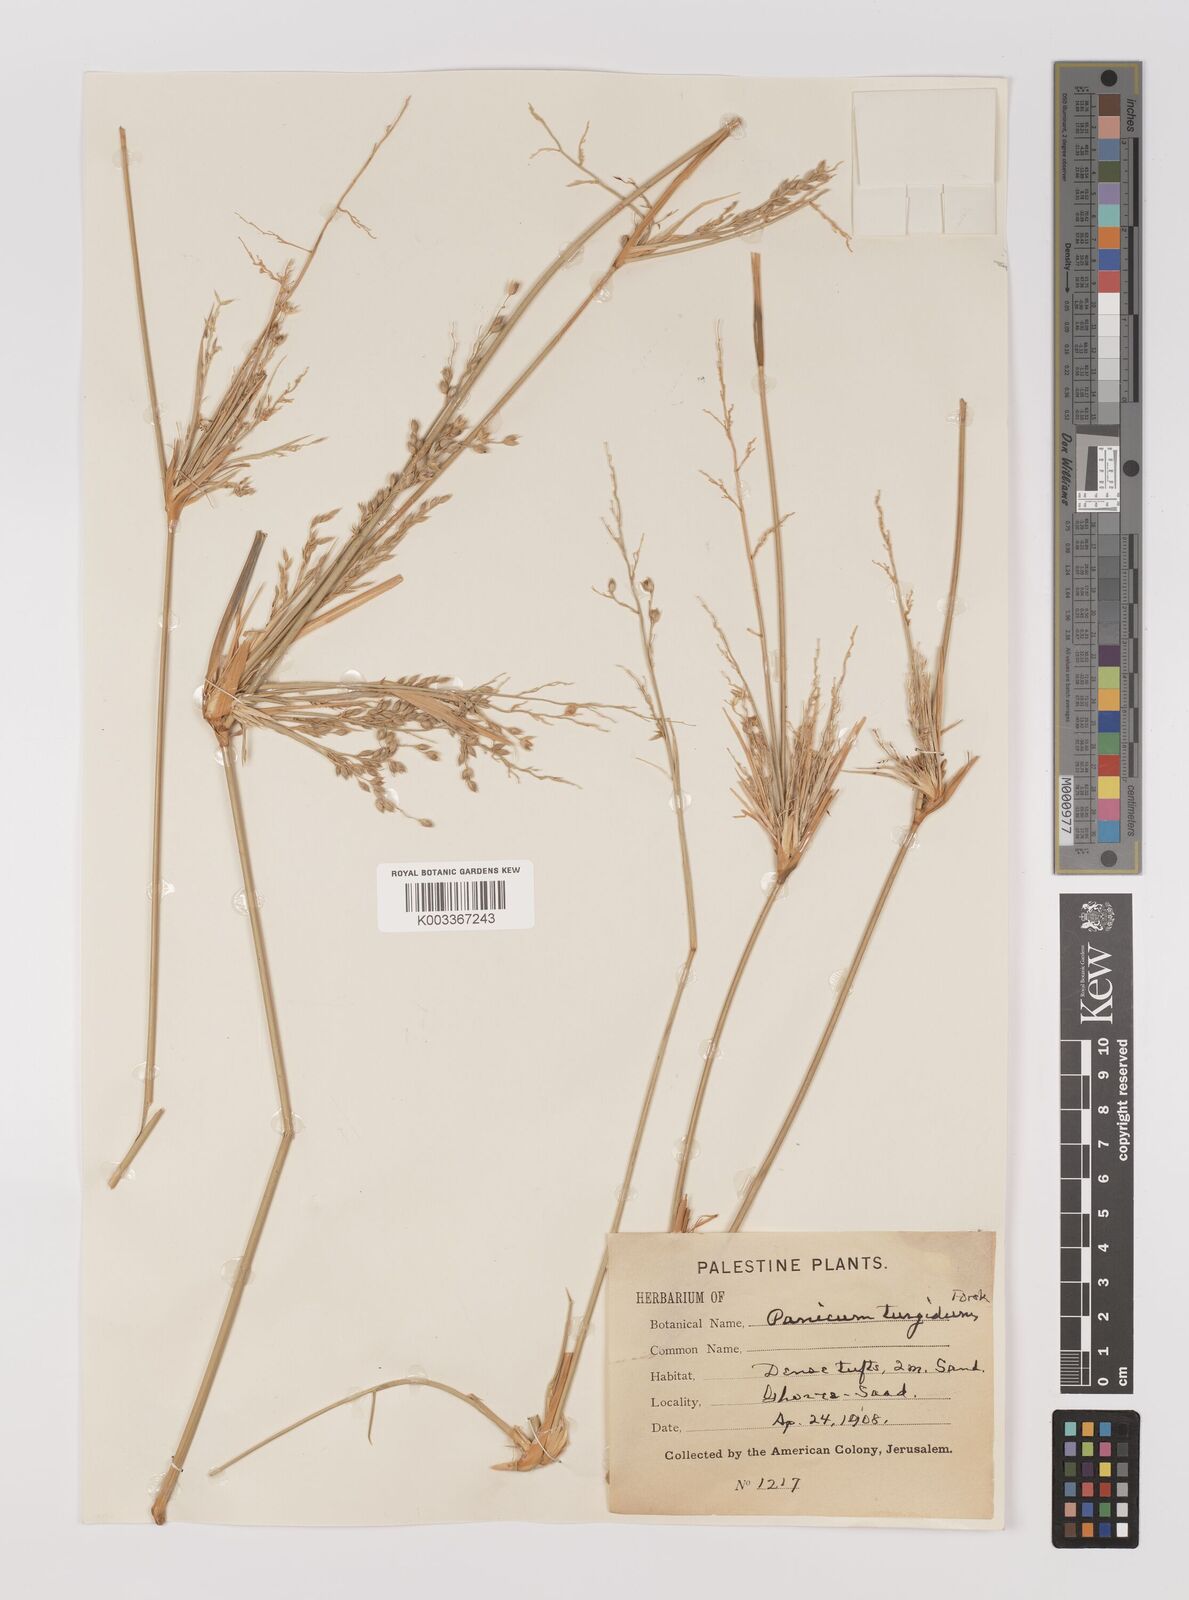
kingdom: Plantae
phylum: Tracheophyta
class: Liliopsida
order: Poales
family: Poaceae
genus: Panicum
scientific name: Panicum turgidum
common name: Desert grass
